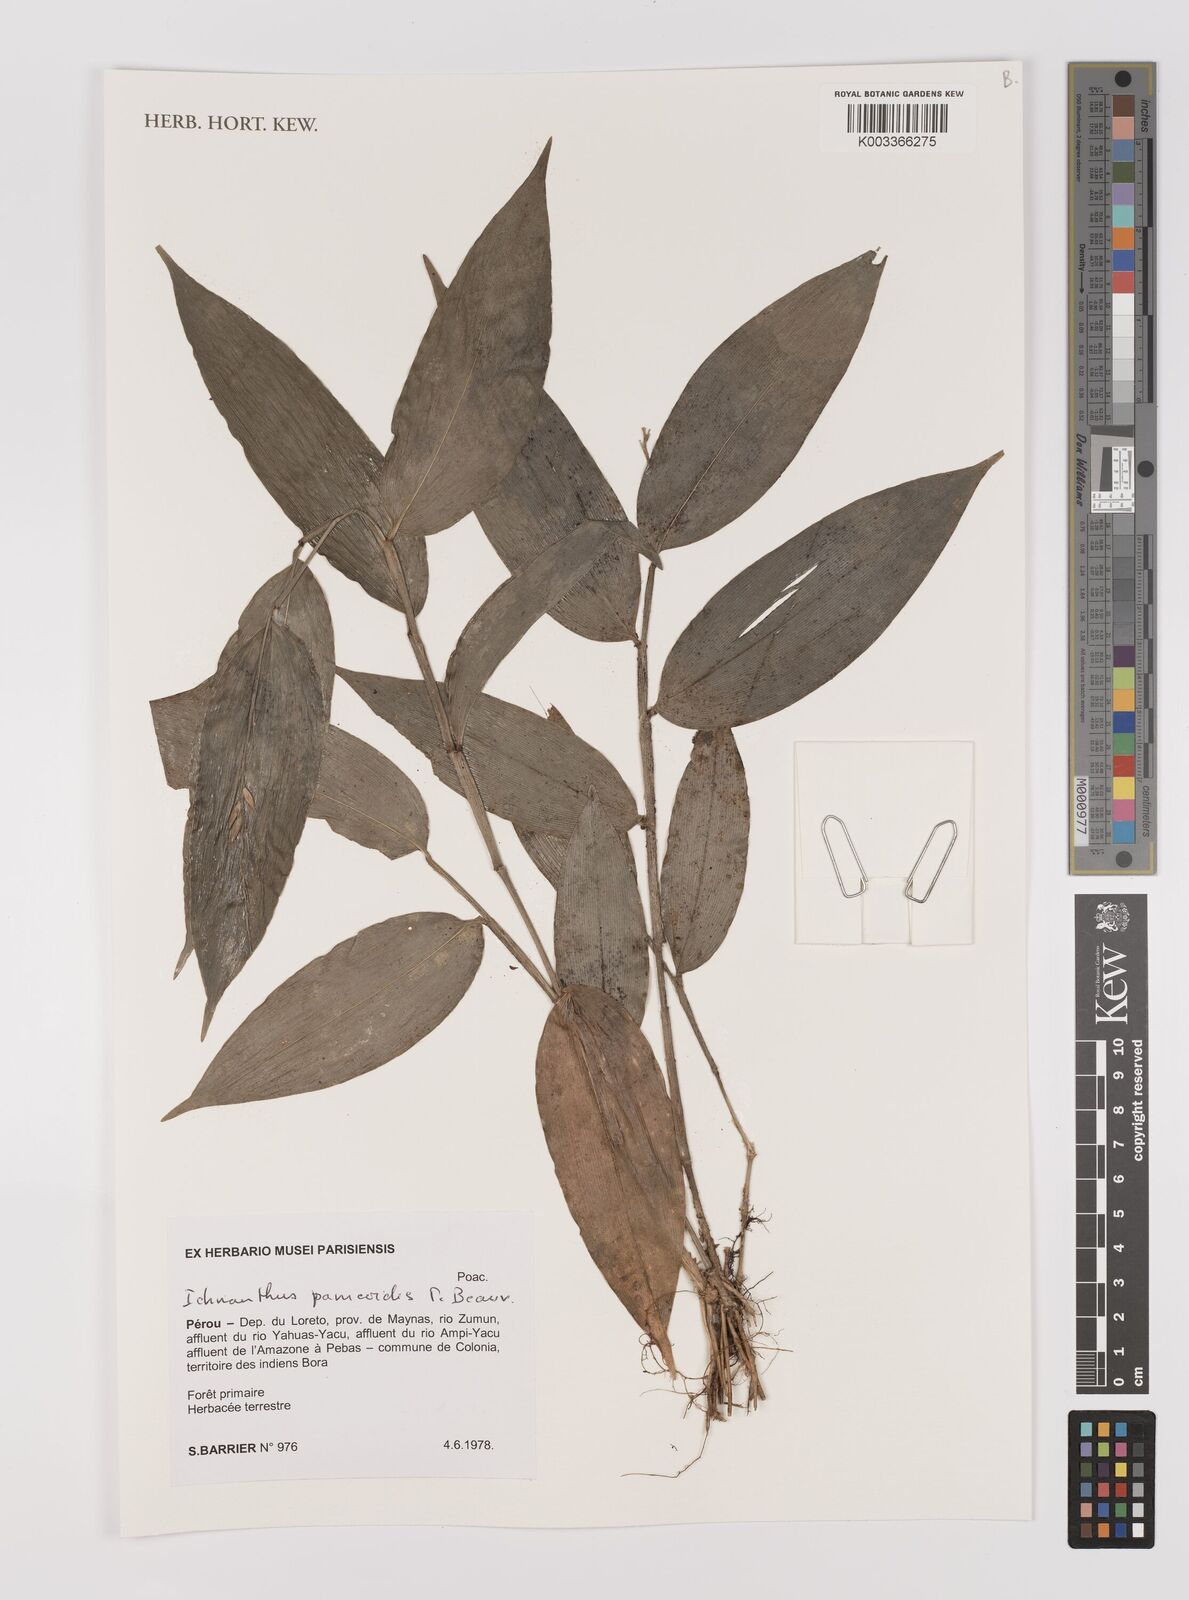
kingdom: Plantae
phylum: Tracheophyta
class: Liliopsida
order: Poales
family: Poaceae
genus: Ichnanthus
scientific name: Ichnanthus panicoides
